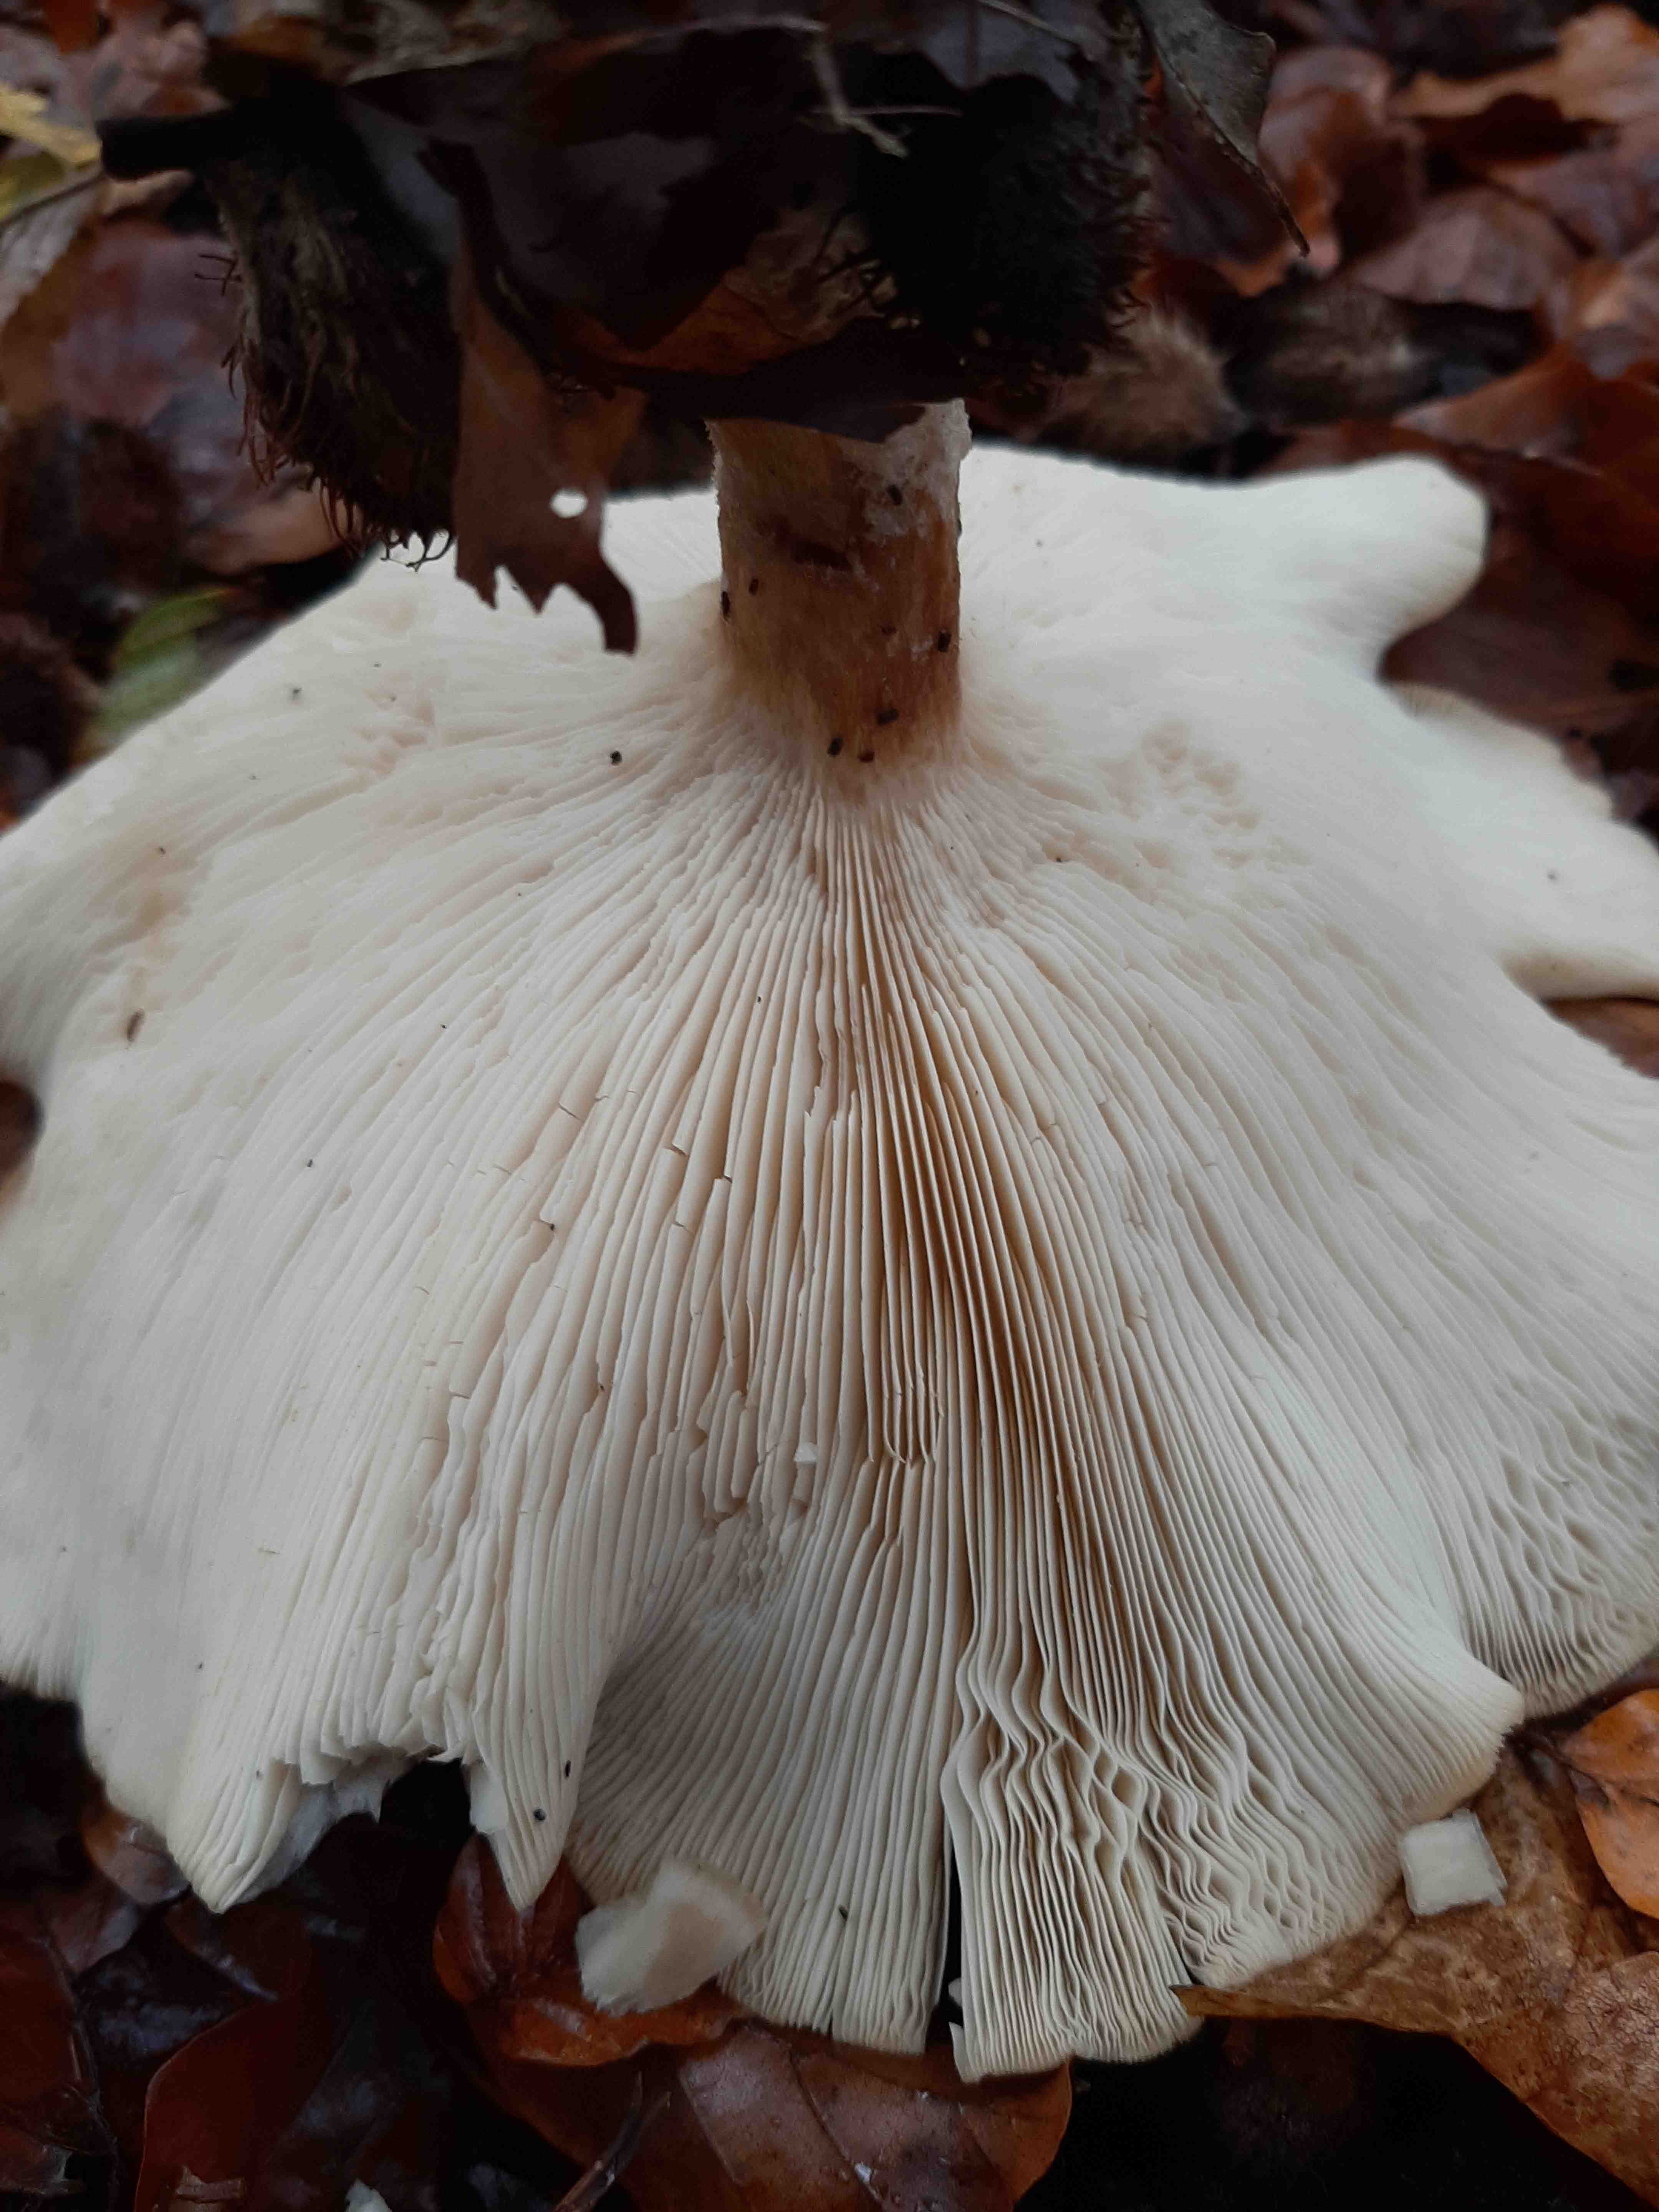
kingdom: Fungi
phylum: Basidiomycota
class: Agaricomycetes
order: Agaricales
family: Tricholomataceae
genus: Clitocybe
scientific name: Clitocybe nebularis
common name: tåge-tragthat
